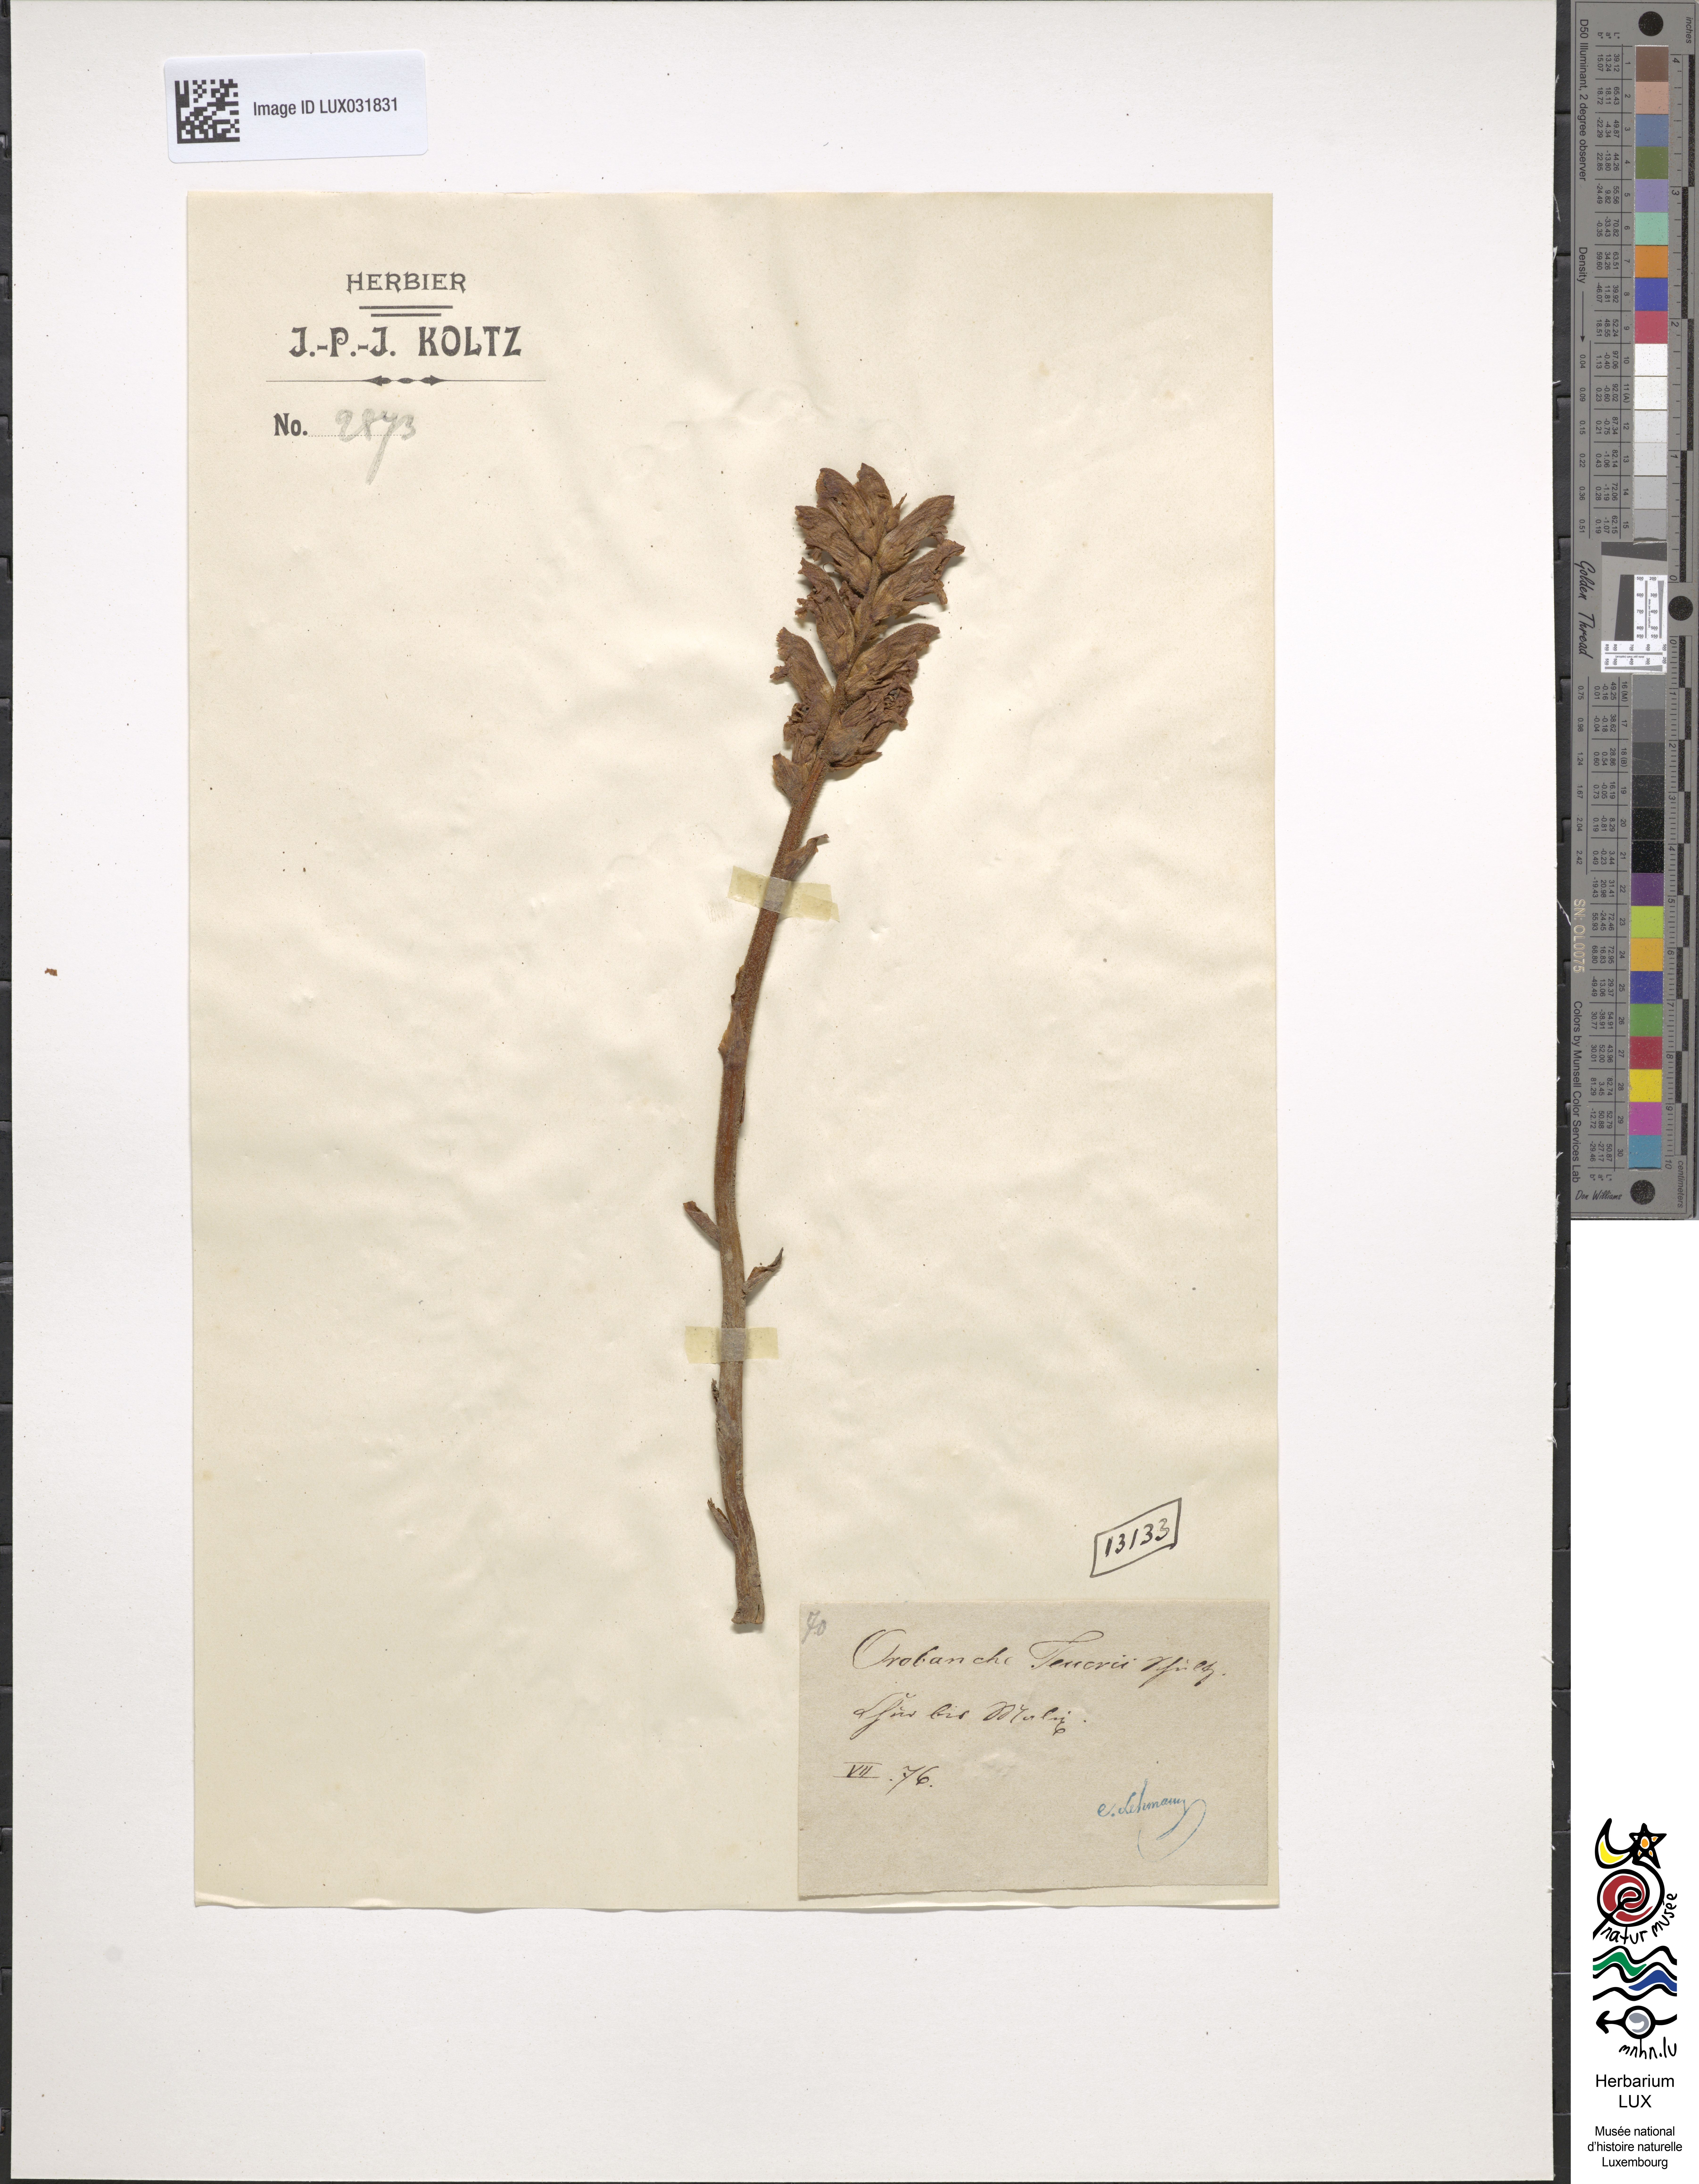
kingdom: Plantae
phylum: Tracheophyta
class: Magnoliopsida
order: Lamiales
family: Orobanchaceae
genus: Orobanche
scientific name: Orobanche teucrii
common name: Germander broomrape
